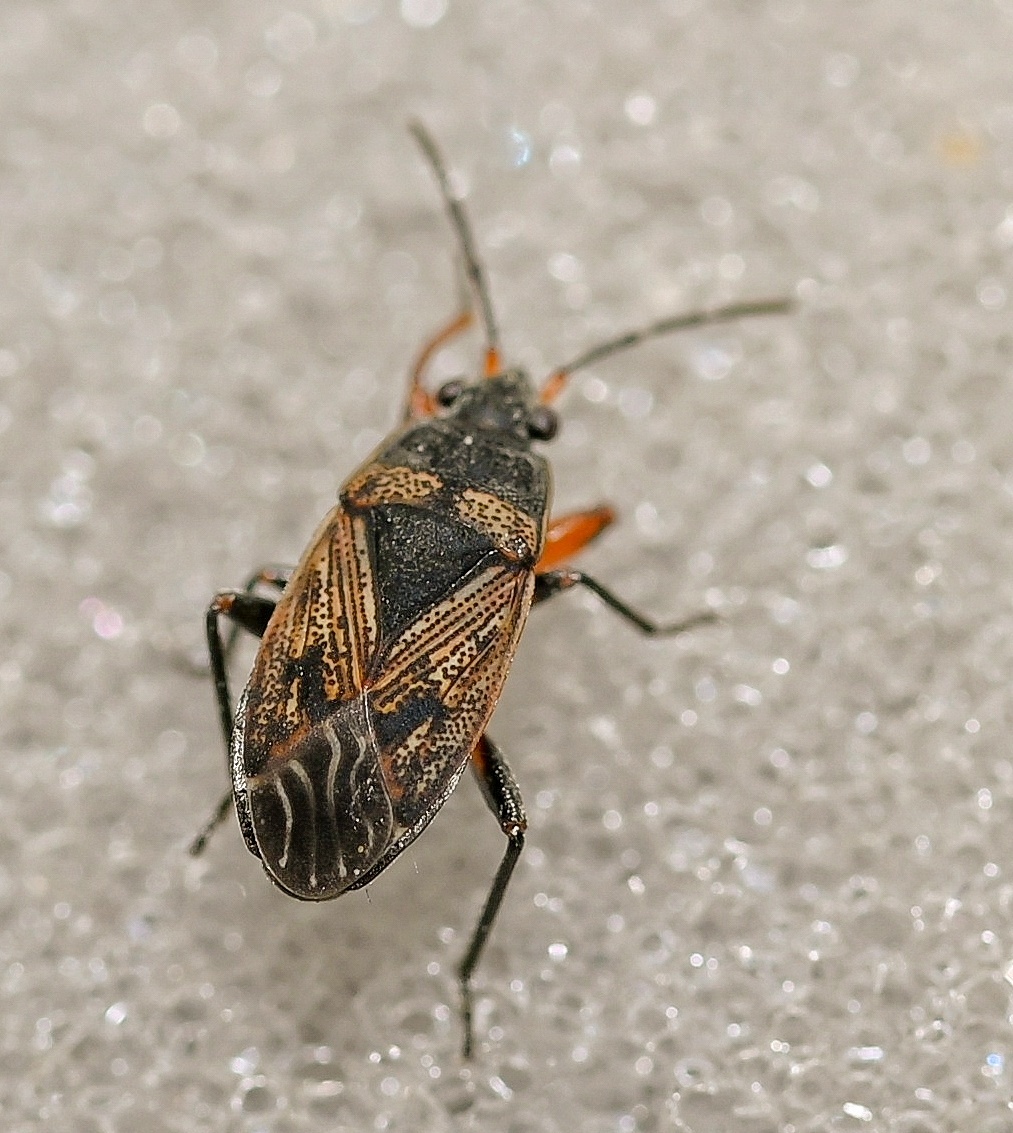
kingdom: Animalia
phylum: Arthropoda
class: Insecta
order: Hemiptera
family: Rhyparochromidae
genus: Trapezonotus
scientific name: Trapezonotus desertus
